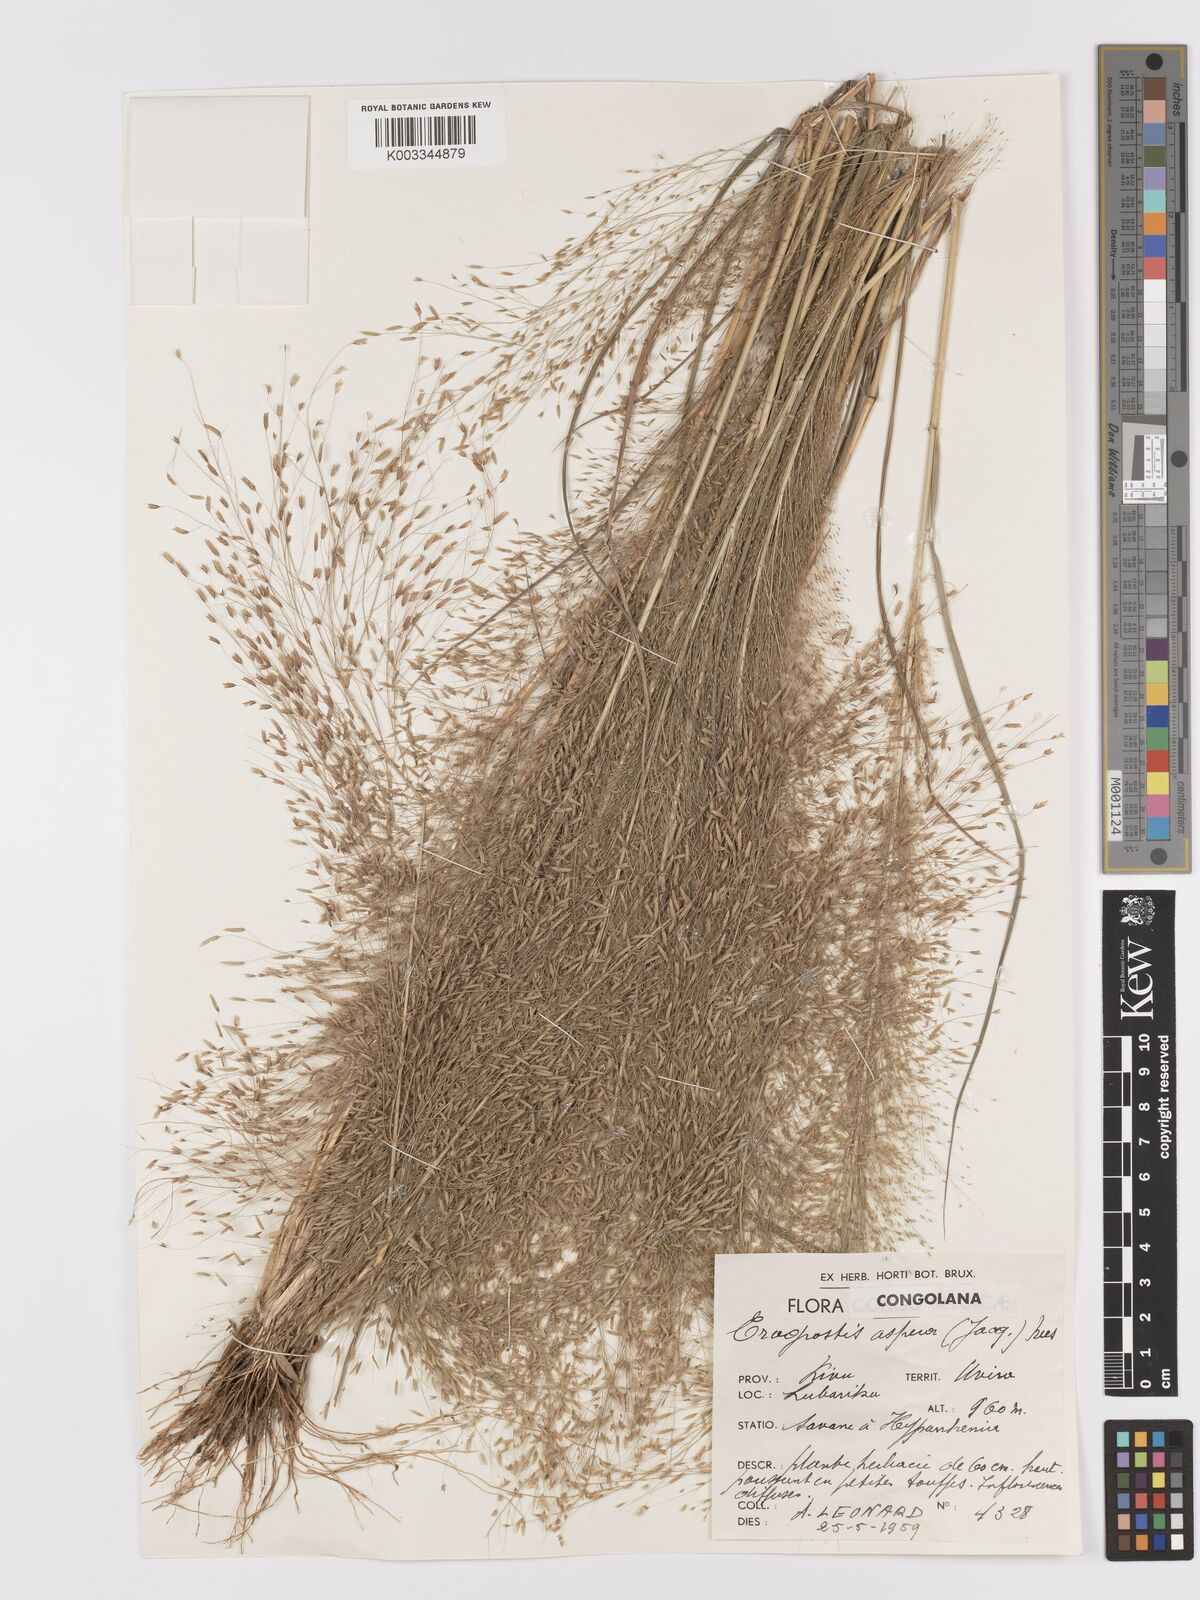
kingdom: Plantae
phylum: Tracheophyta
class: Liliopsida
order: Poales
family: Poaceae
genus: Eragrostis
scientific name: Eragrostis aspera
